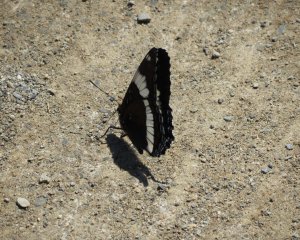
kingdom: Animalia
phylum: Arthropoda
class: Insecta
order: Lepidoptera
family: Nymphalidae
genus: Limenitis
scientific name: Limenitis arthemis
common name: Red-spotted Admiral
